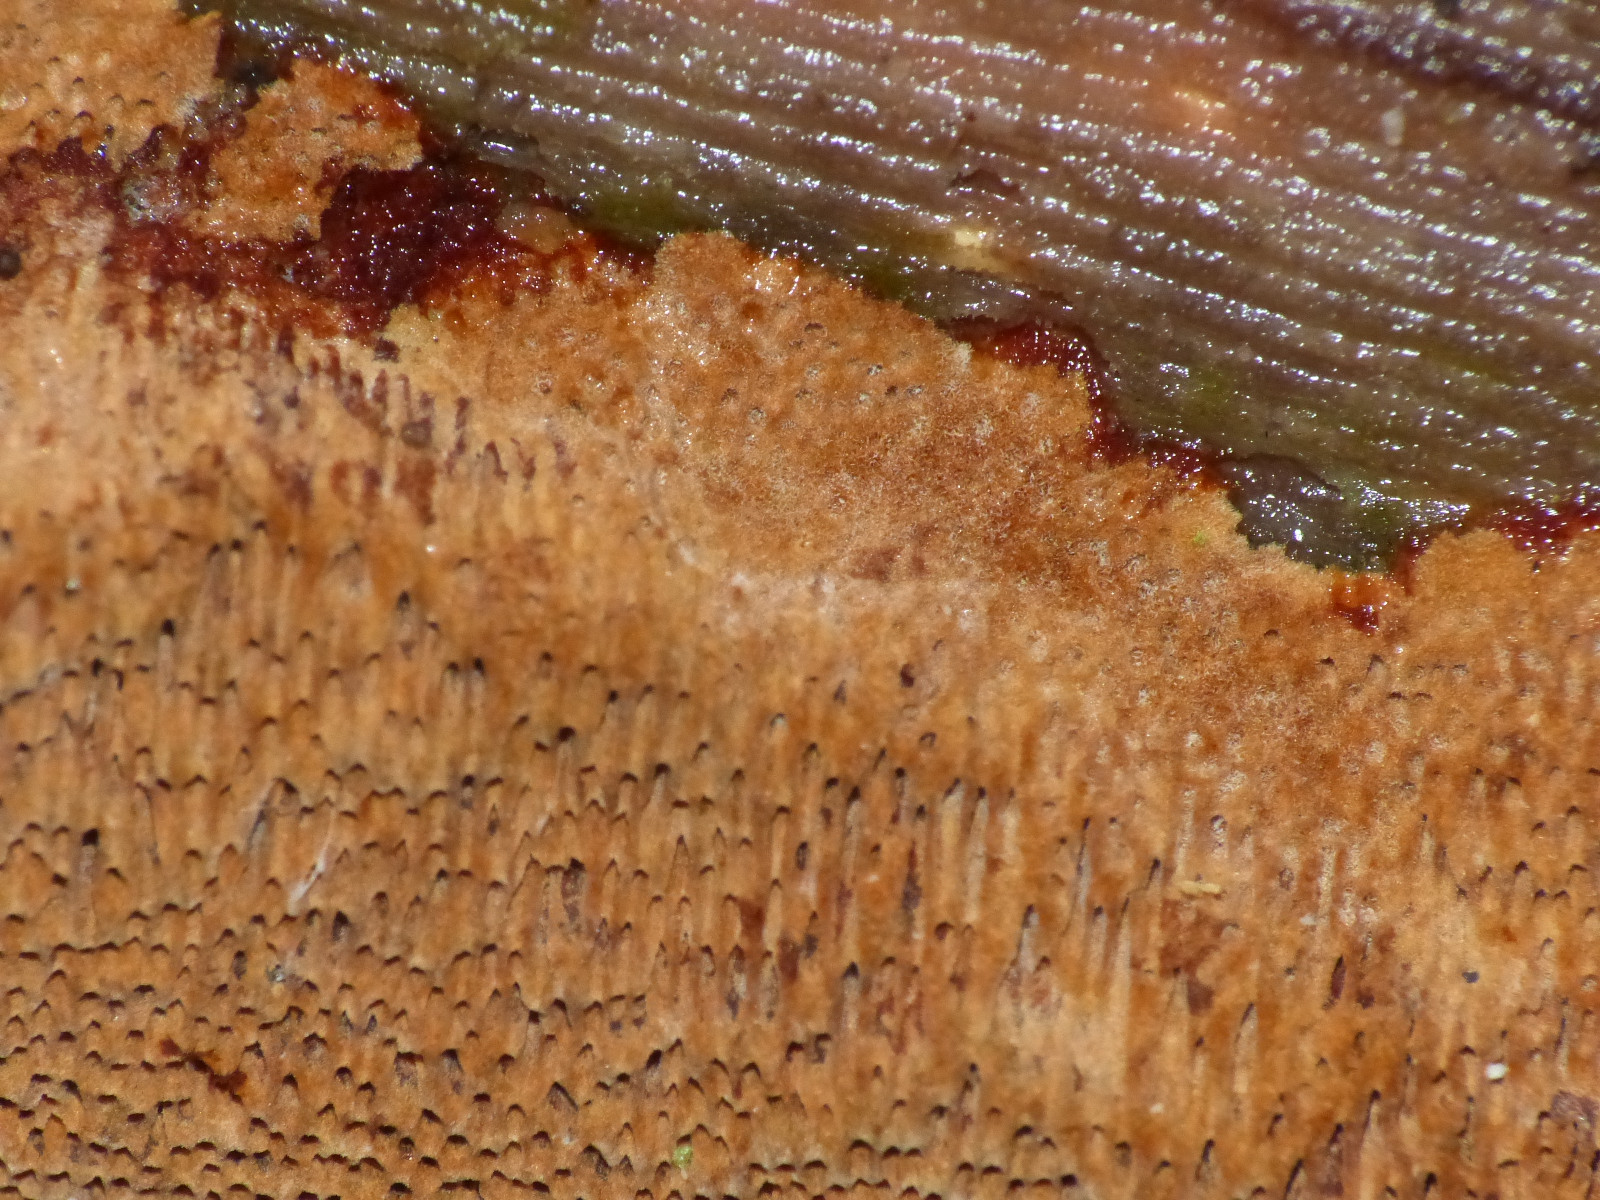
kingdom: Fungi
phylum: Basidiomycota
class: Agaricomycetes
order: Hymenochaetales
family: Hymenochaetaceae
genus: Fuscoporia
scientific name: Fuscoporia ferrea
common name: skorpe-ildporesvamp
